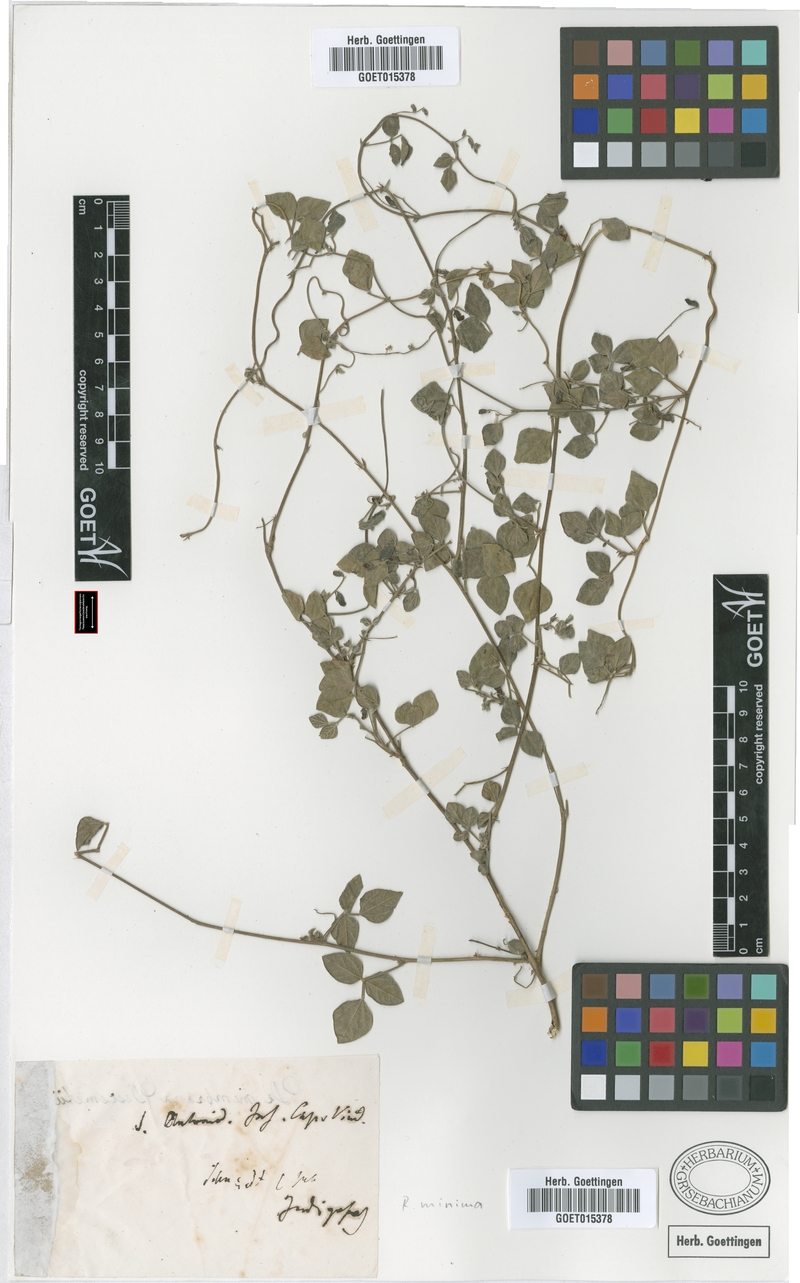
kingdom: Plantae
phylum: Tracheophyta
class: Magnoliopsida
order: Fabales
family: Fabaceae
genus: Rhynchosia
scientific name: Rhynchosia minima
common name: Least snoutbean
